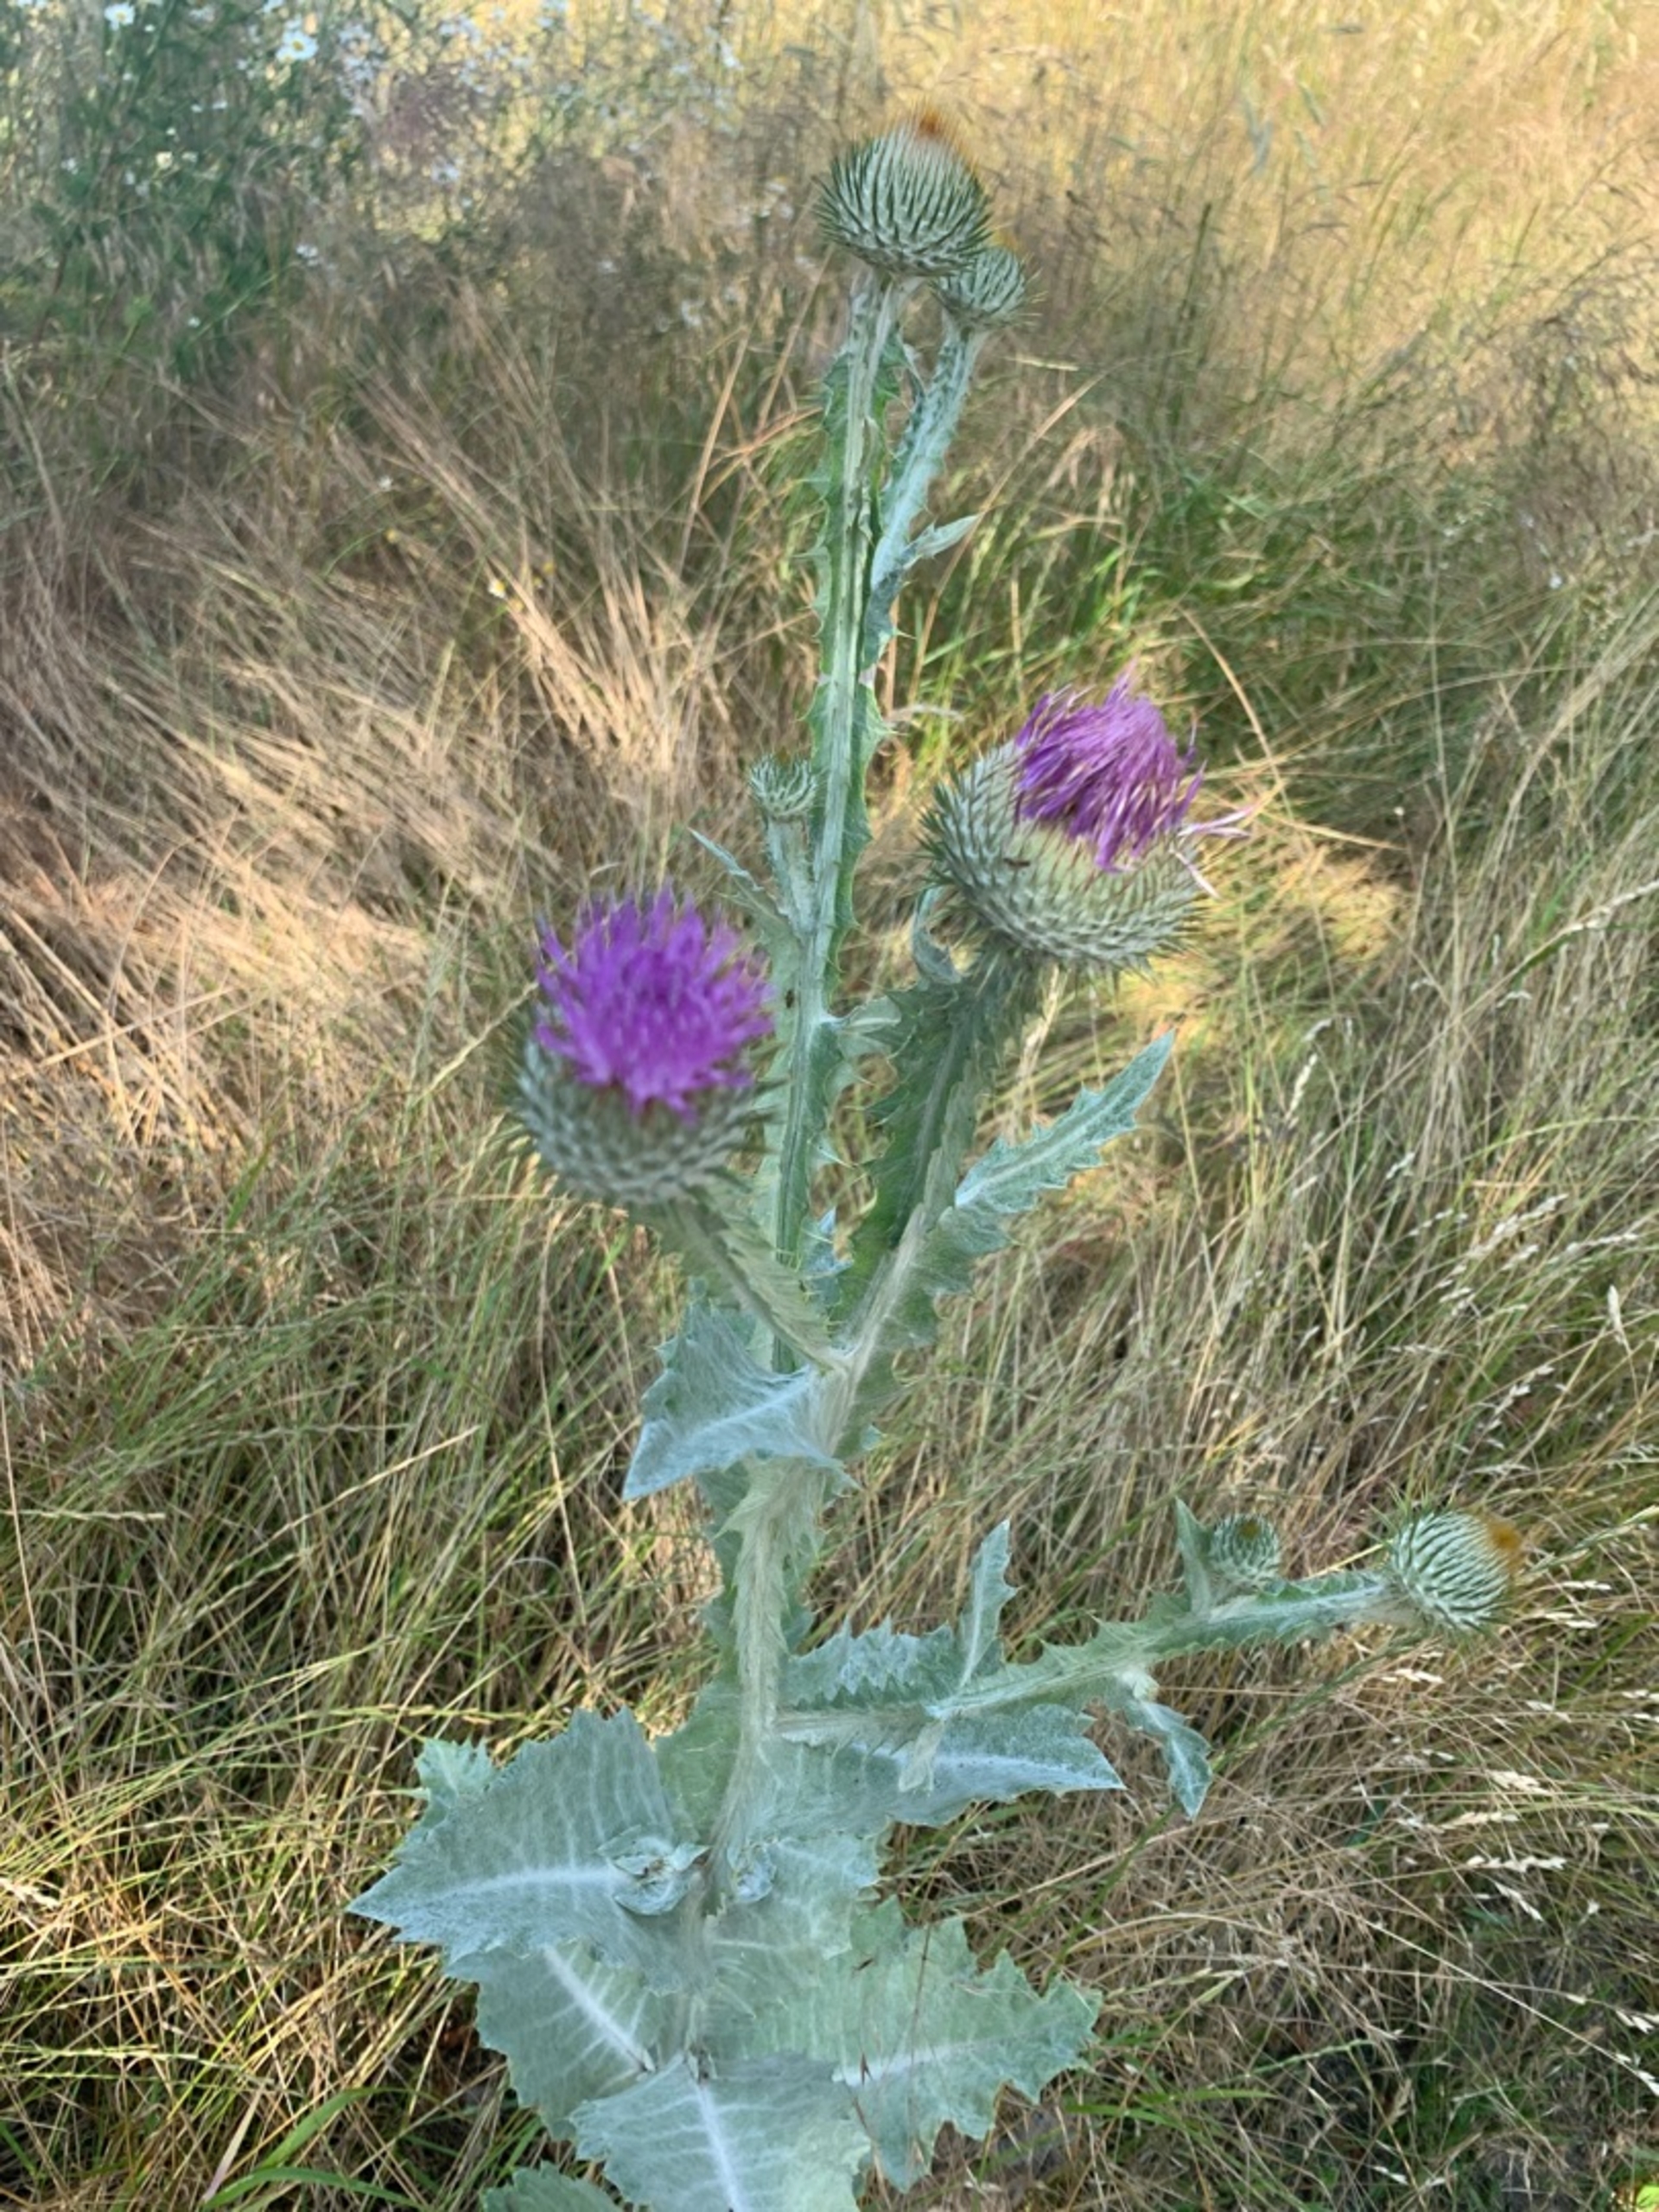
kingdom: Plantae
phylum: Tracheophyta
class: Magnoliopsida
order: Asterales
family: Asteraceae
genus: Onopordum
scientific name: Onopordum acanthium
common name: Æselfoder
